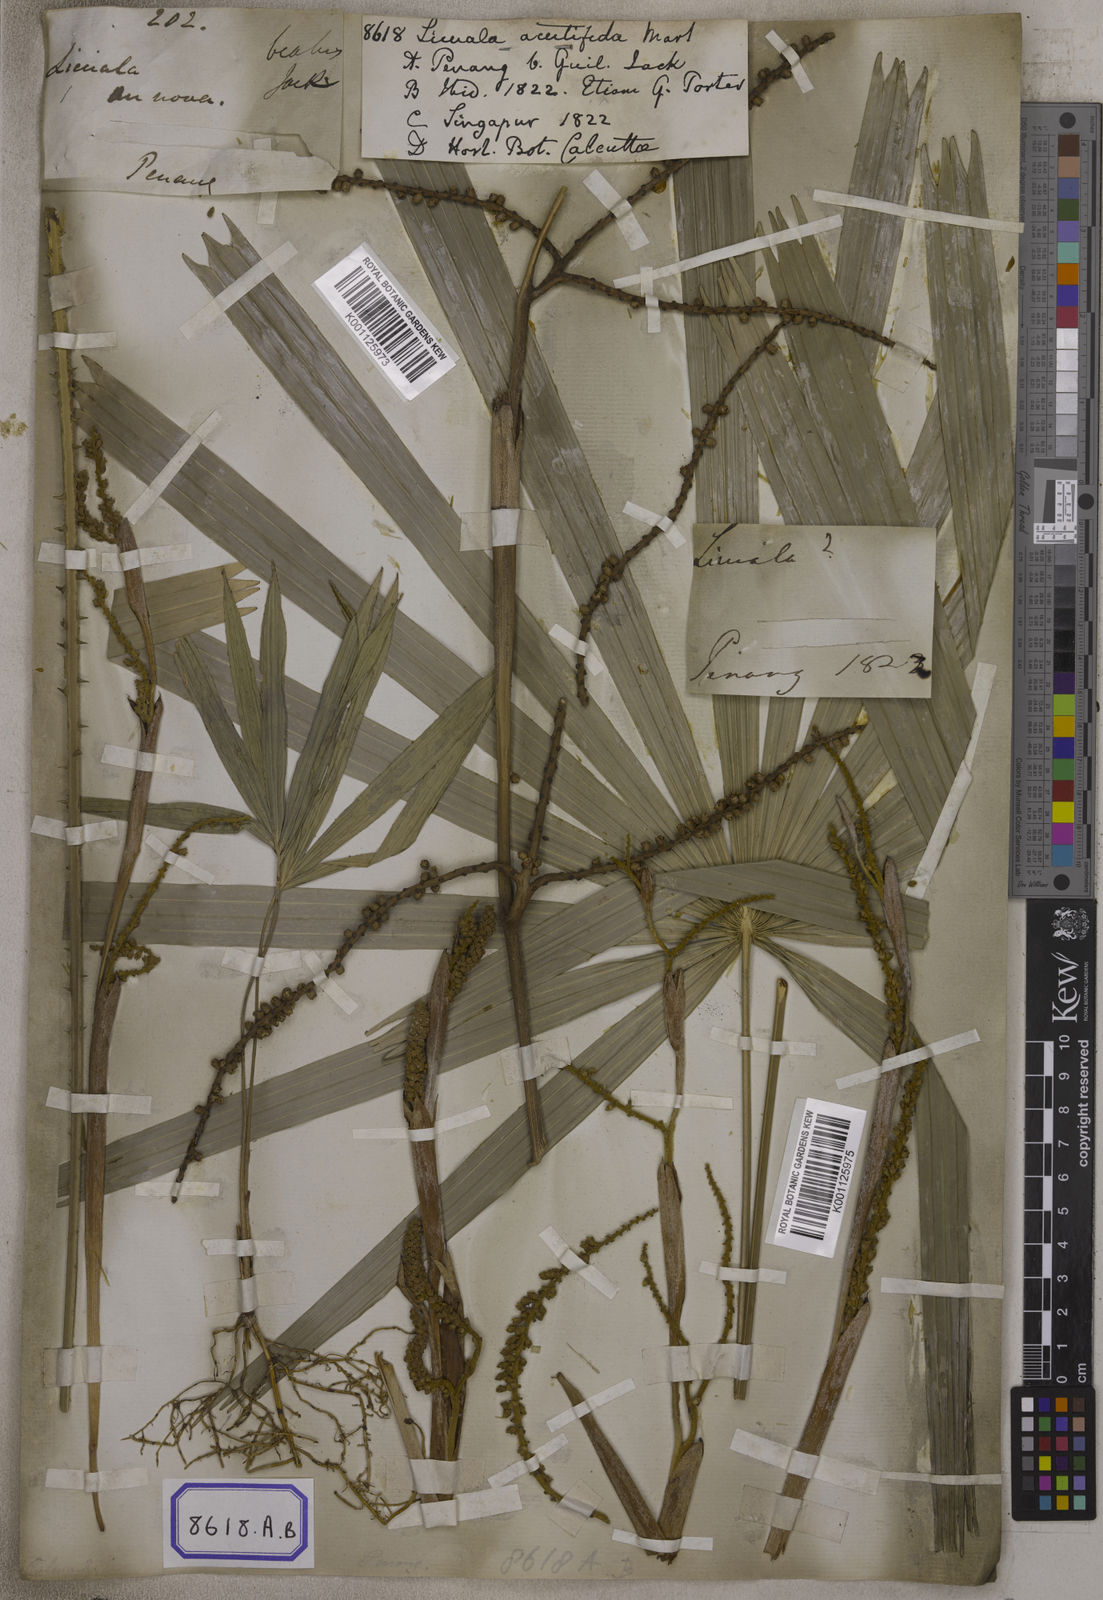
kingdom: Plantae
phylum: Tracheophyta
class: Liliopsida
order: Arecales
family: Arecaceae
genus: Licuala
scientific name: Licuala acutifida
